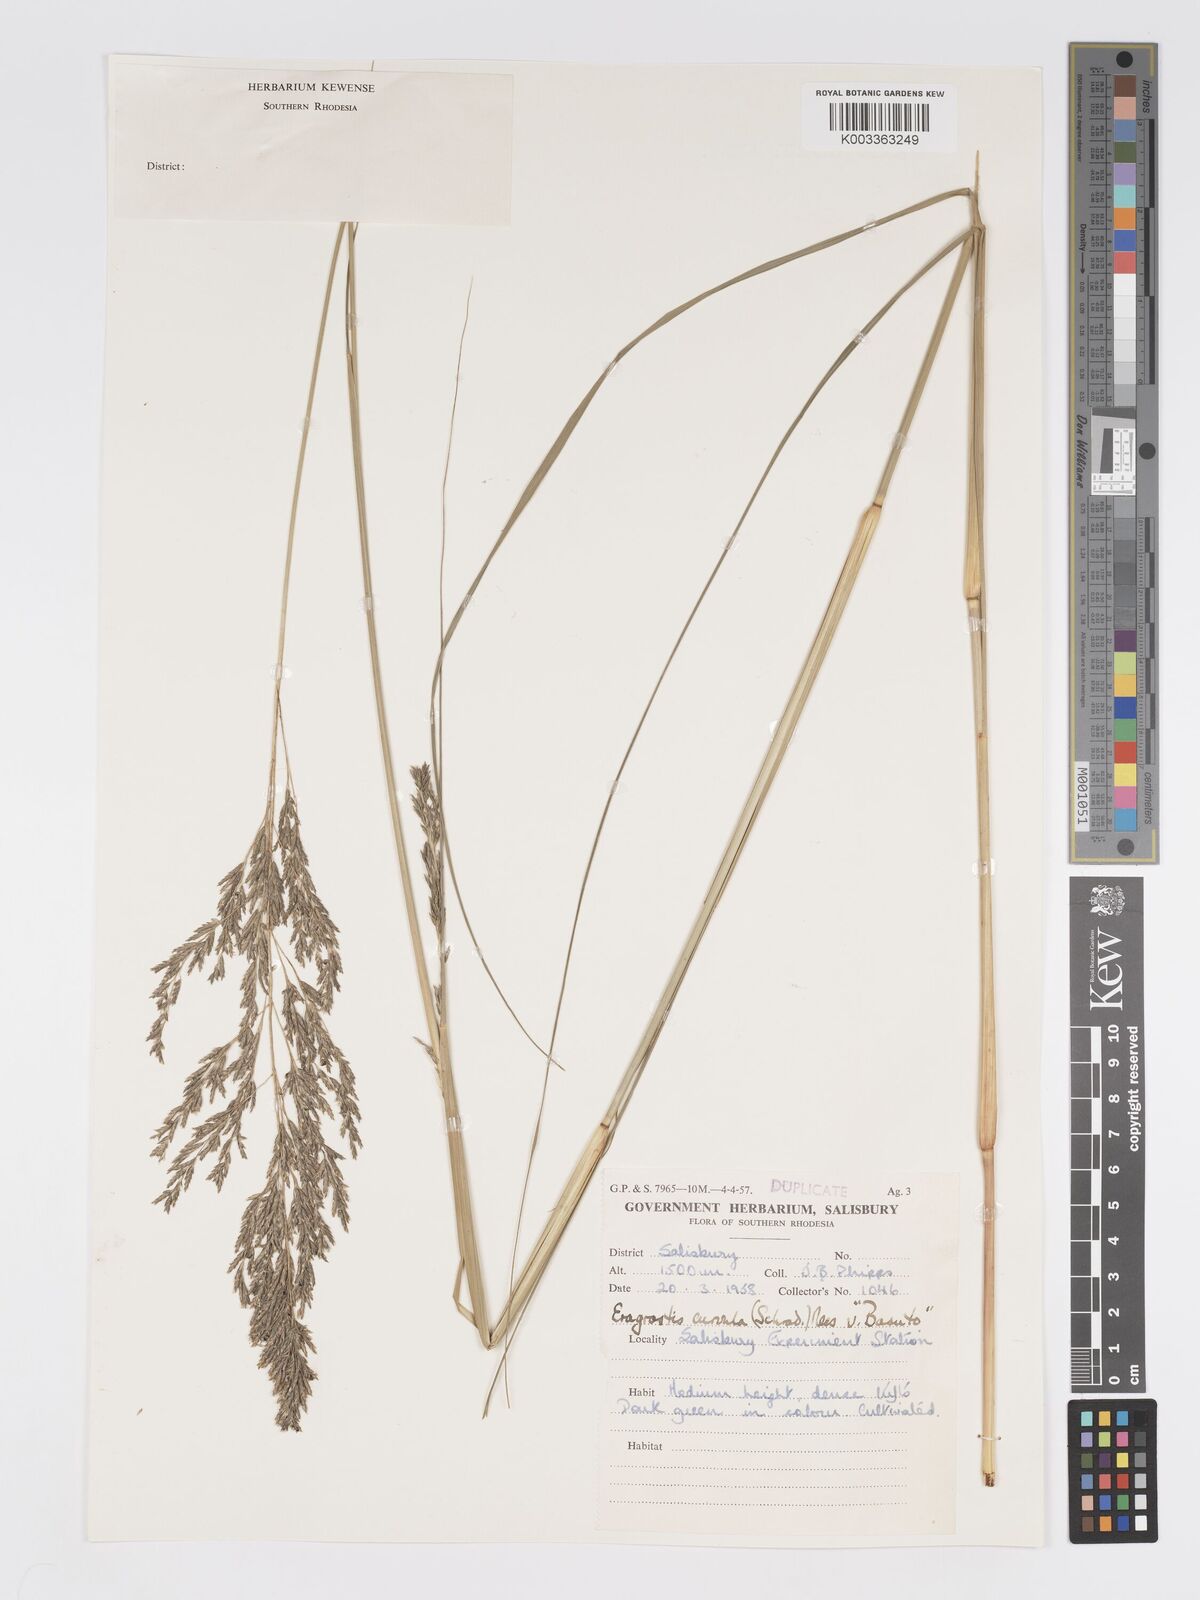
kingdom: Plantae
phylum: Tracheophyta
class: Liliopsida
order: Poales
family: Poaceae
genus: Eragrostis
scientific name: Eragrostis curvula
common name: African love-grass
